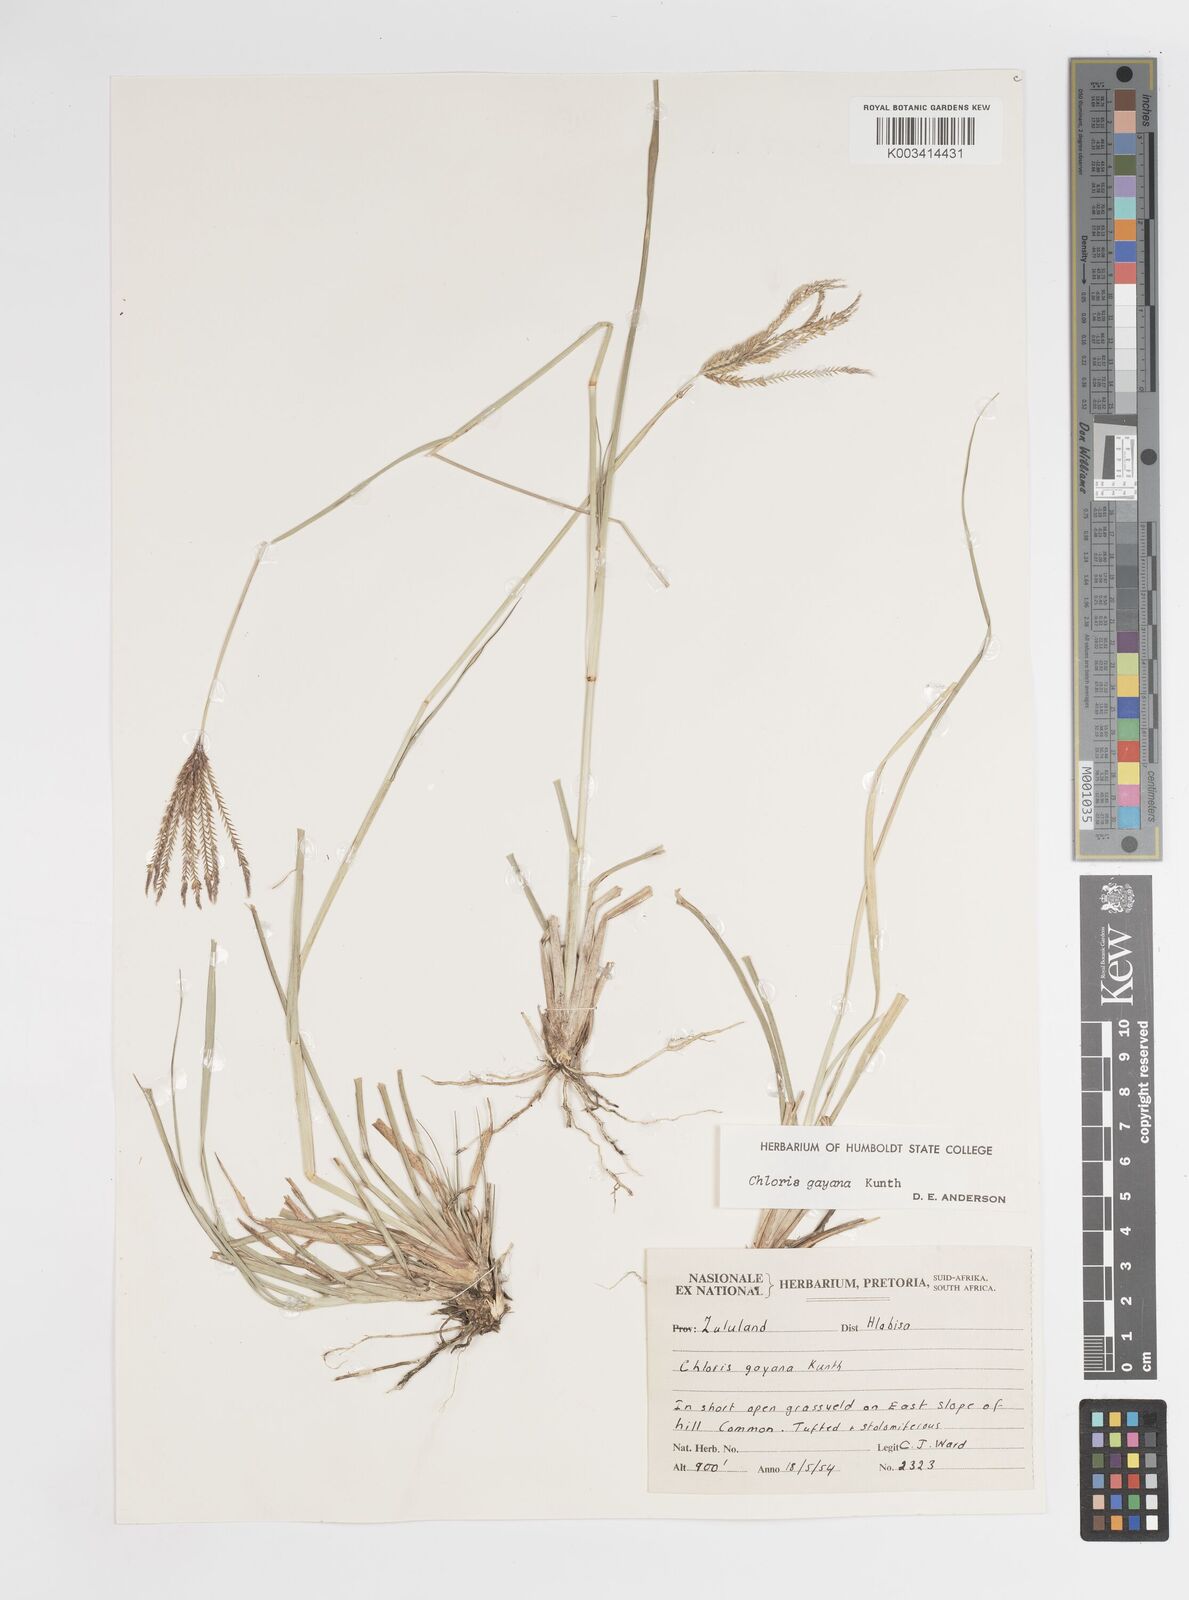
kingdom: Plantae
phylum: Tracheophyta
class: Liliopsida
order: Poales
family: Poaceae
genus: Chloris
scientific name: Chloris gayana
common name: Rhodes grass
